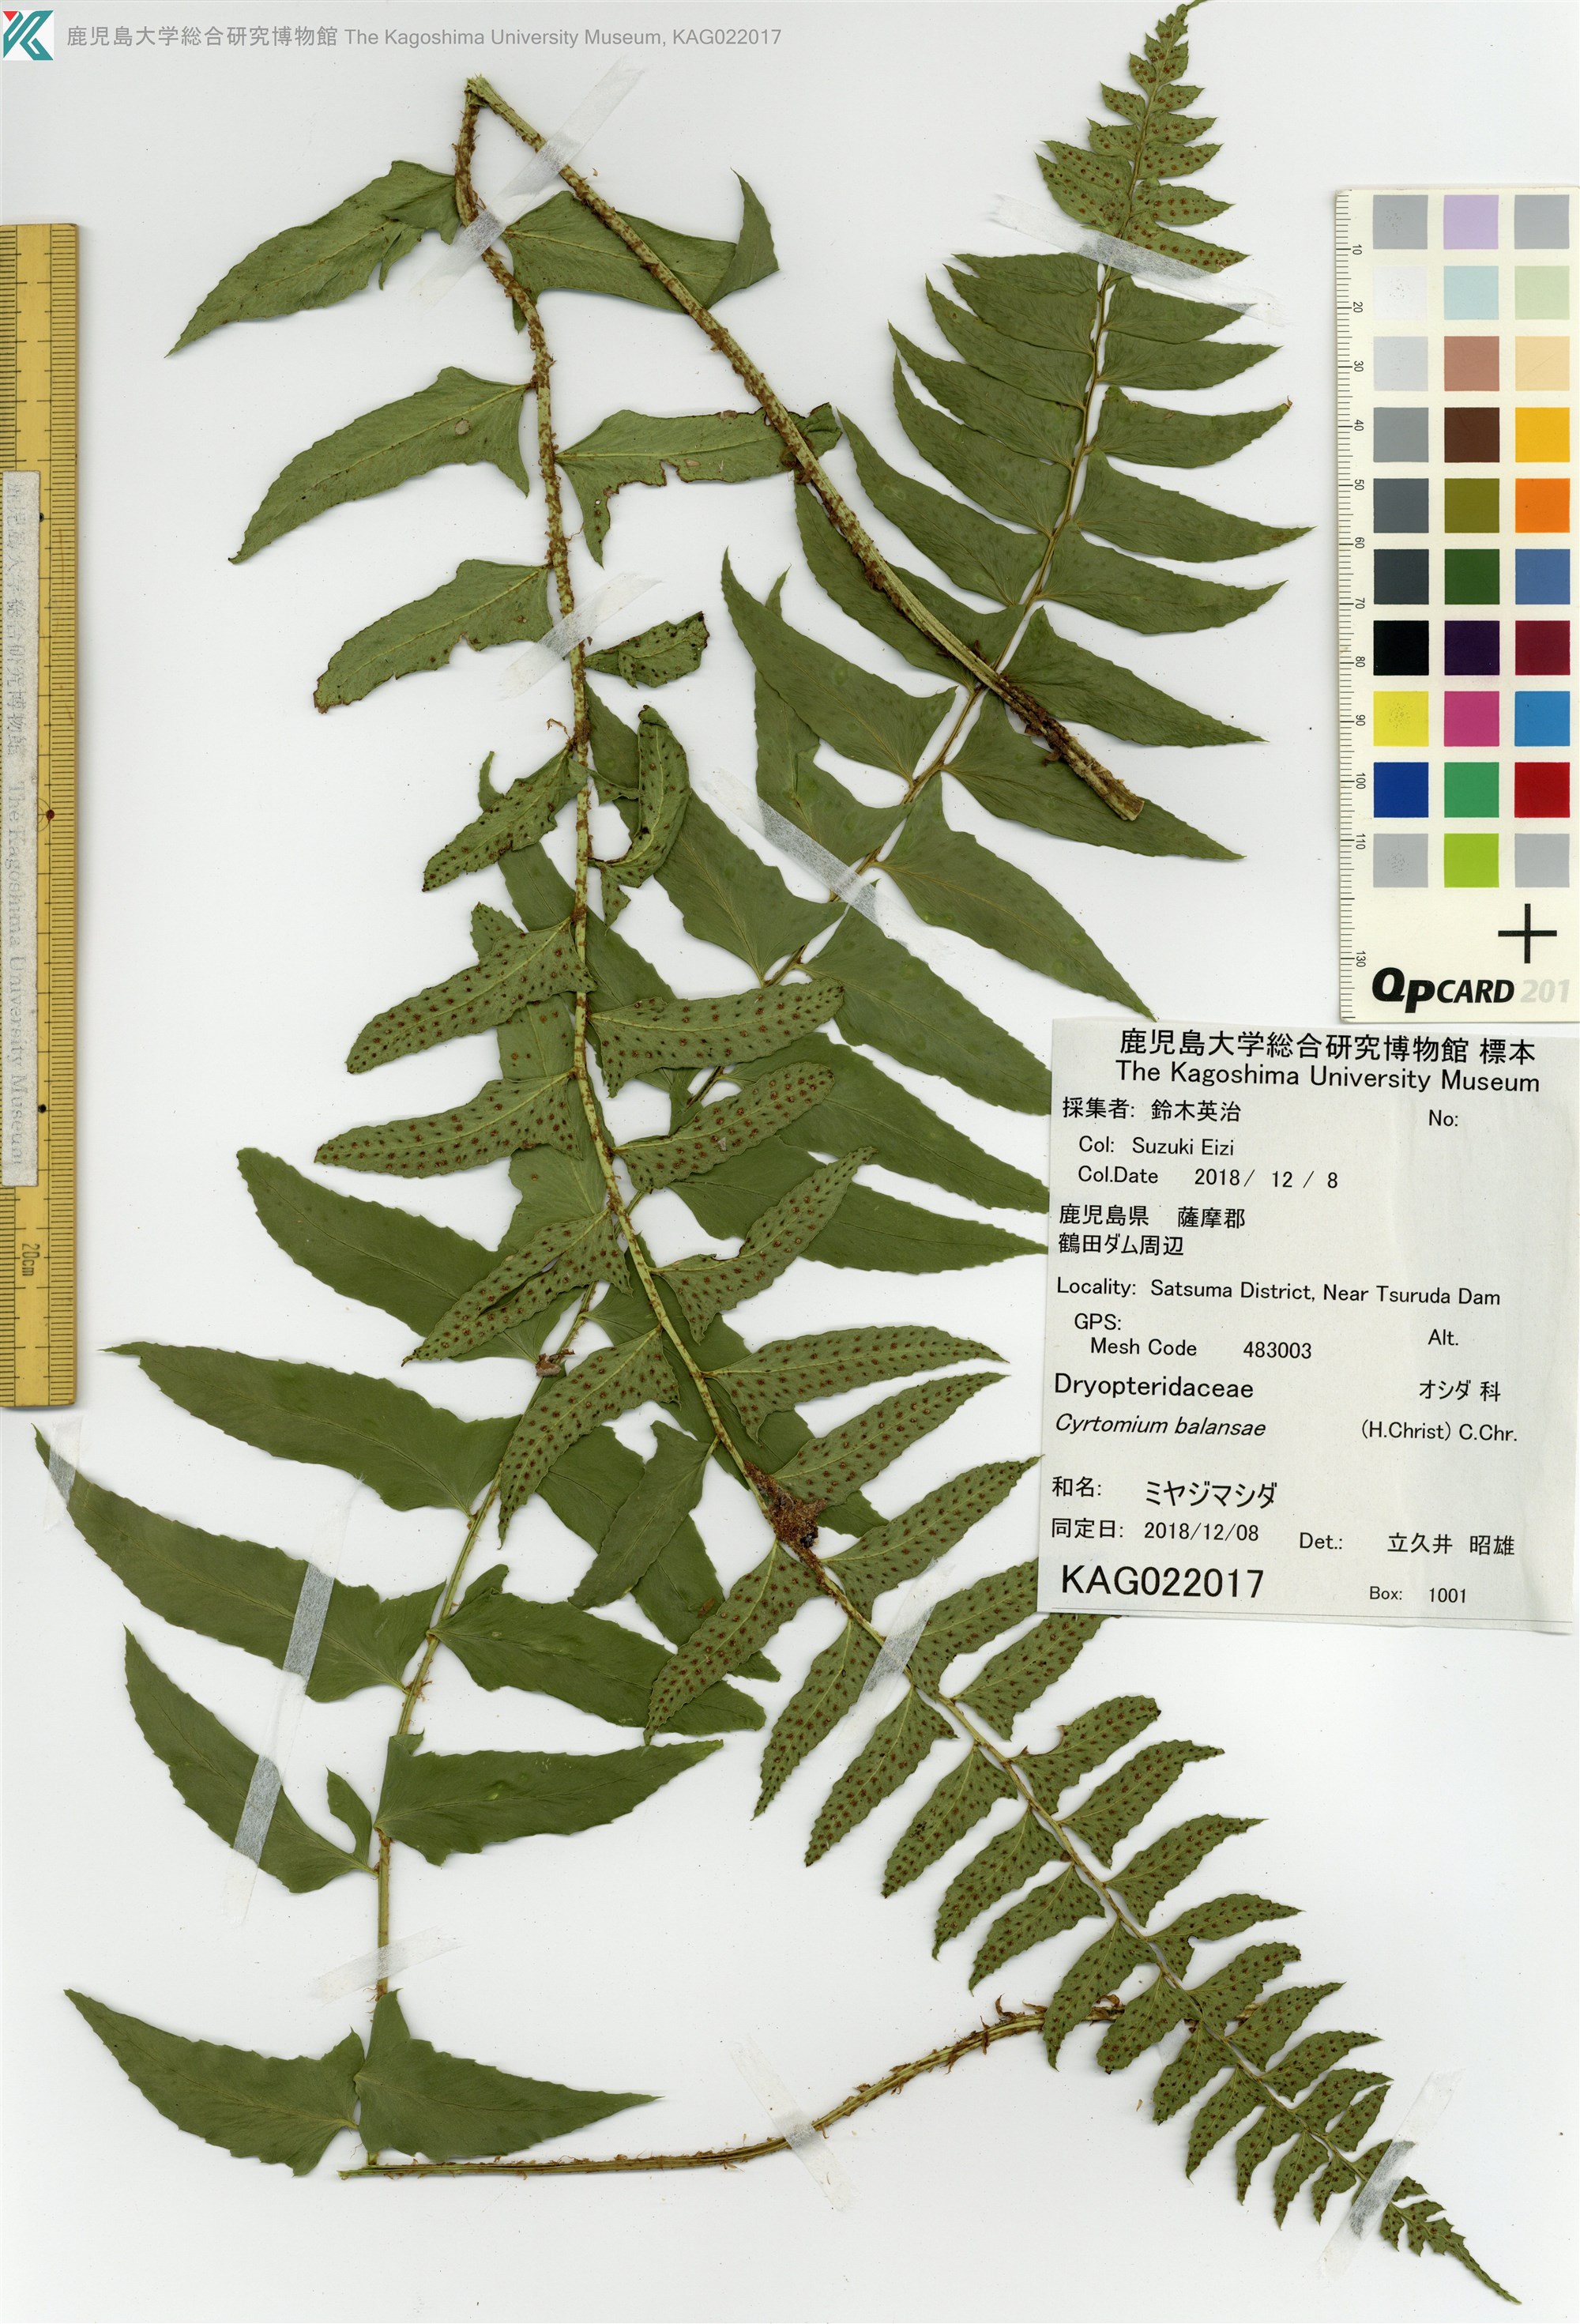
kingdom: Plantae
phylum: Tracheophyta
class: Polypodiopsida
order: Polypodiales
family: Dryopteridaceae
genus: Polystichum
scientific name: Polystichum balansae
